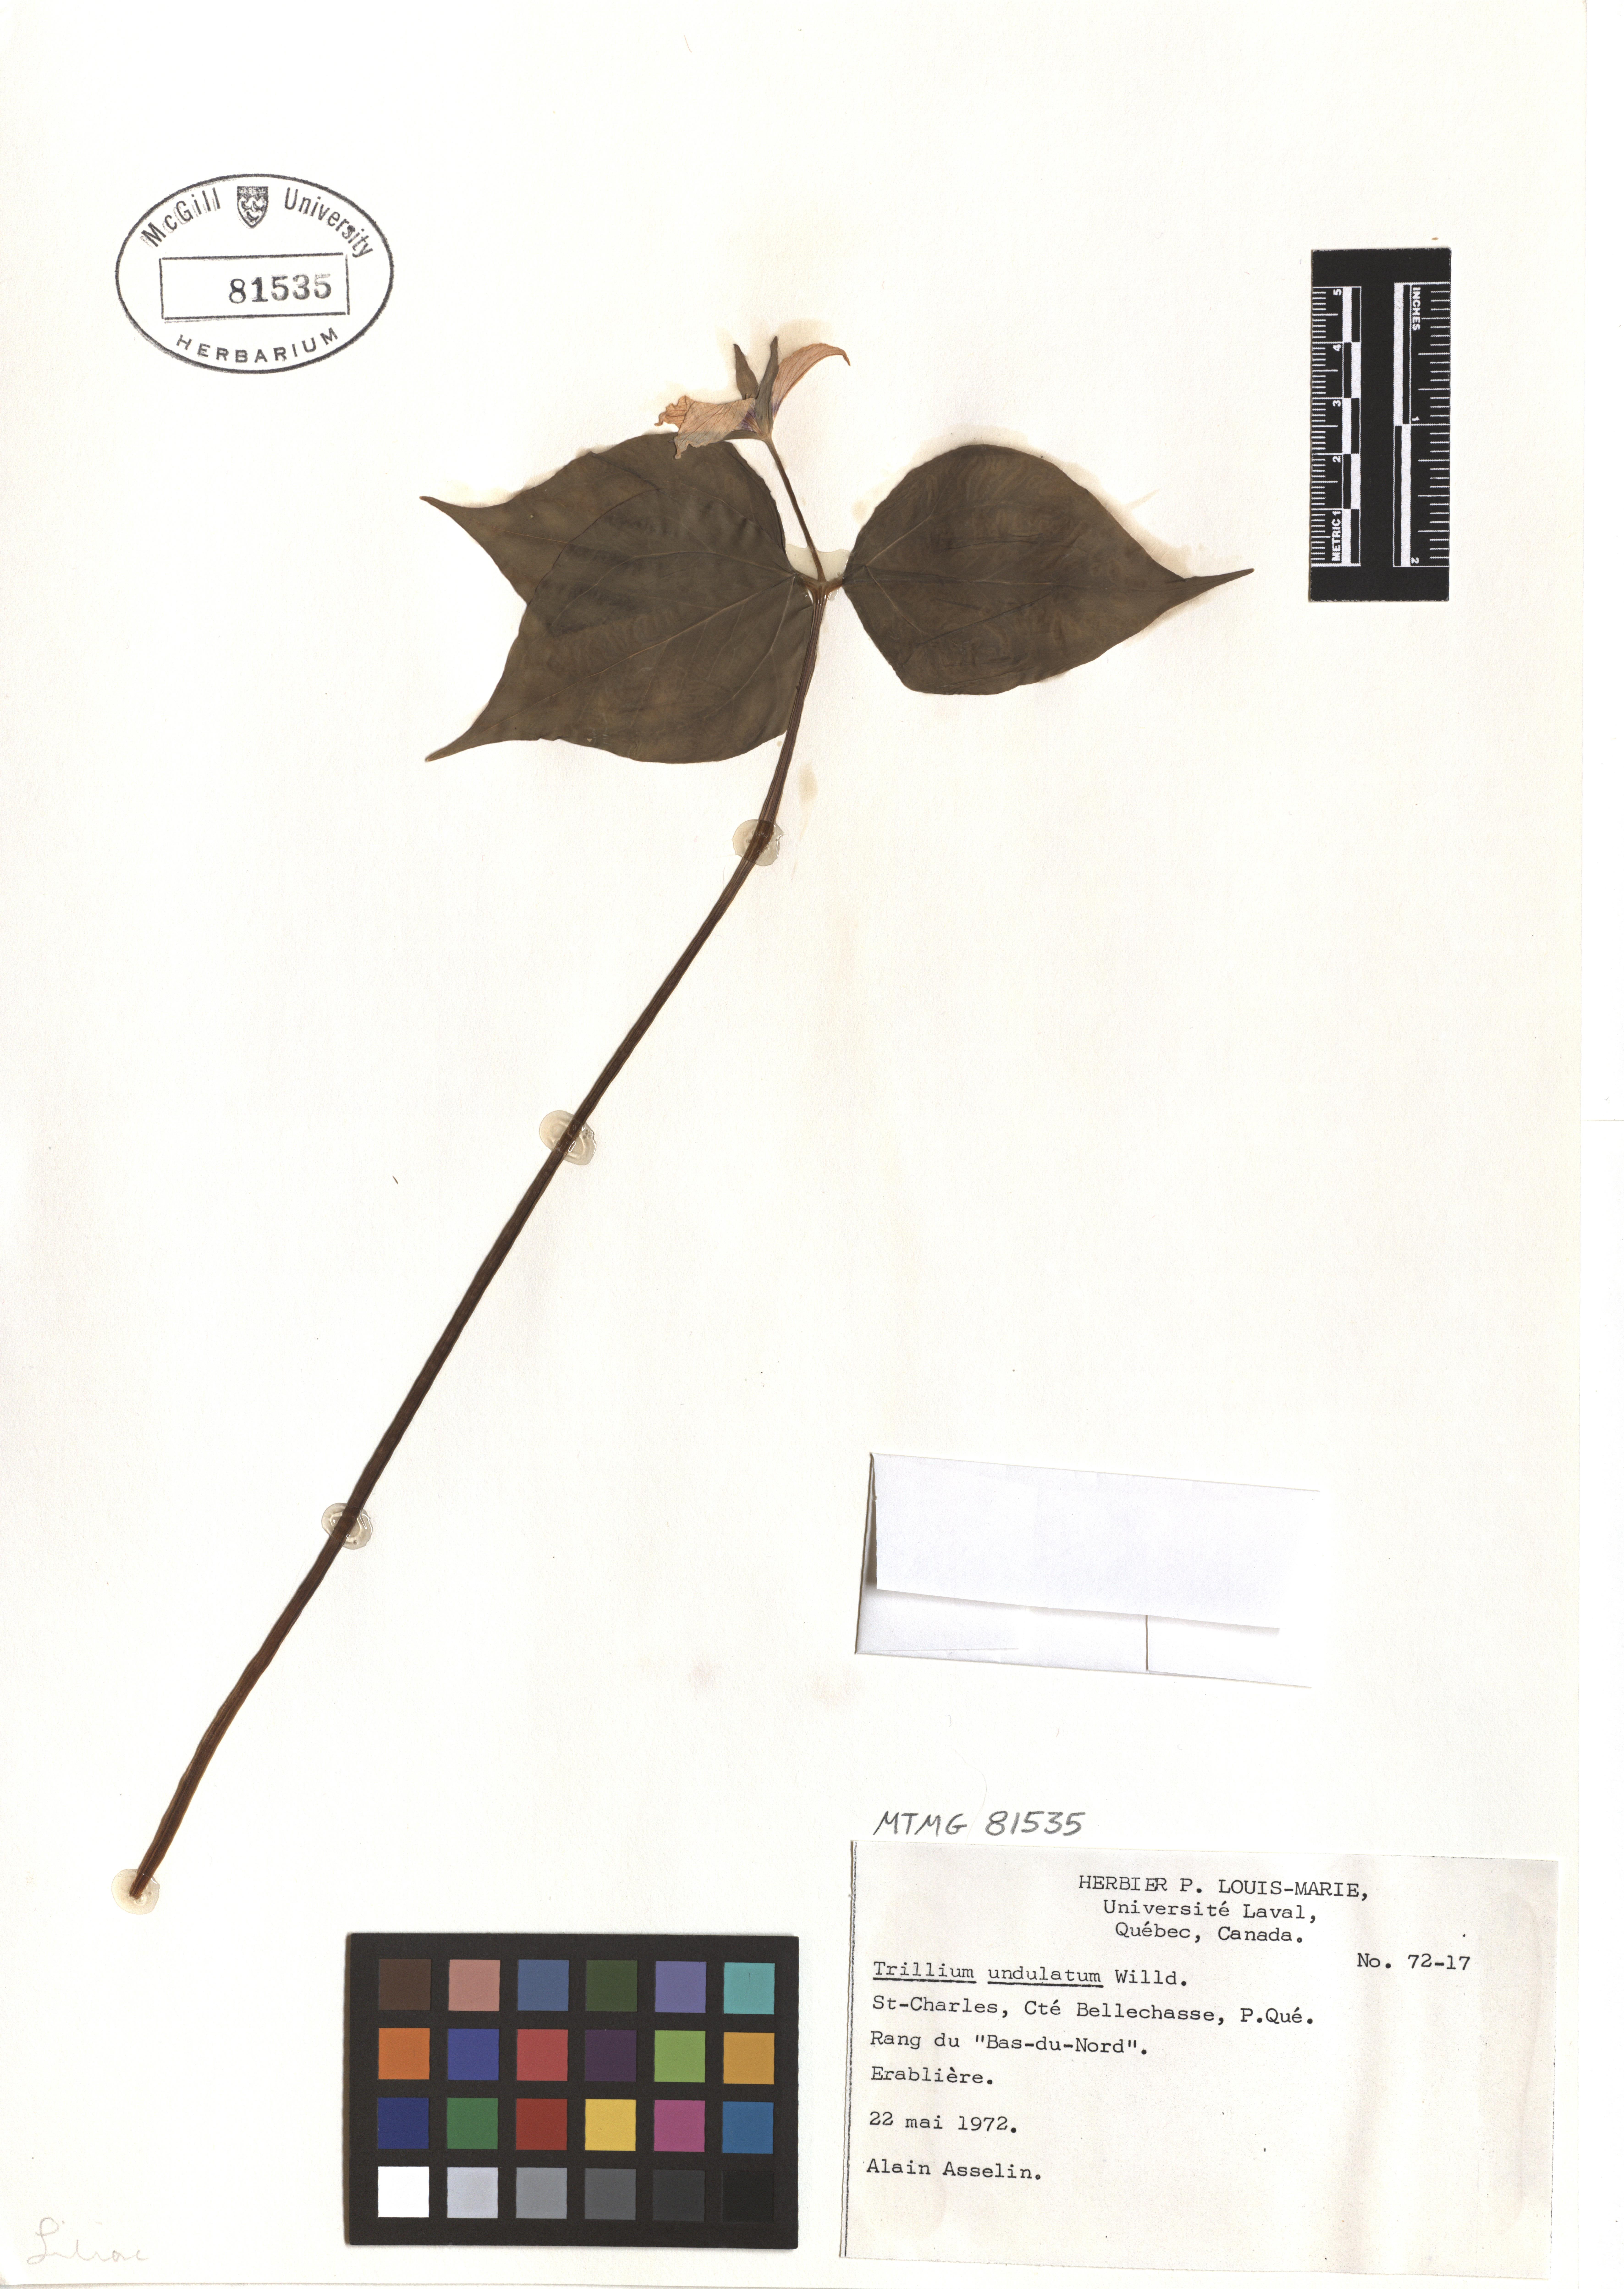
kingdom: Plantae
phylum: Tracheophyta
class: Liliopsida
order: Liliales
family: Melanthiaceae
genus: Trillium
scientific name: Trillium undulatum
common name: Paint trillium
